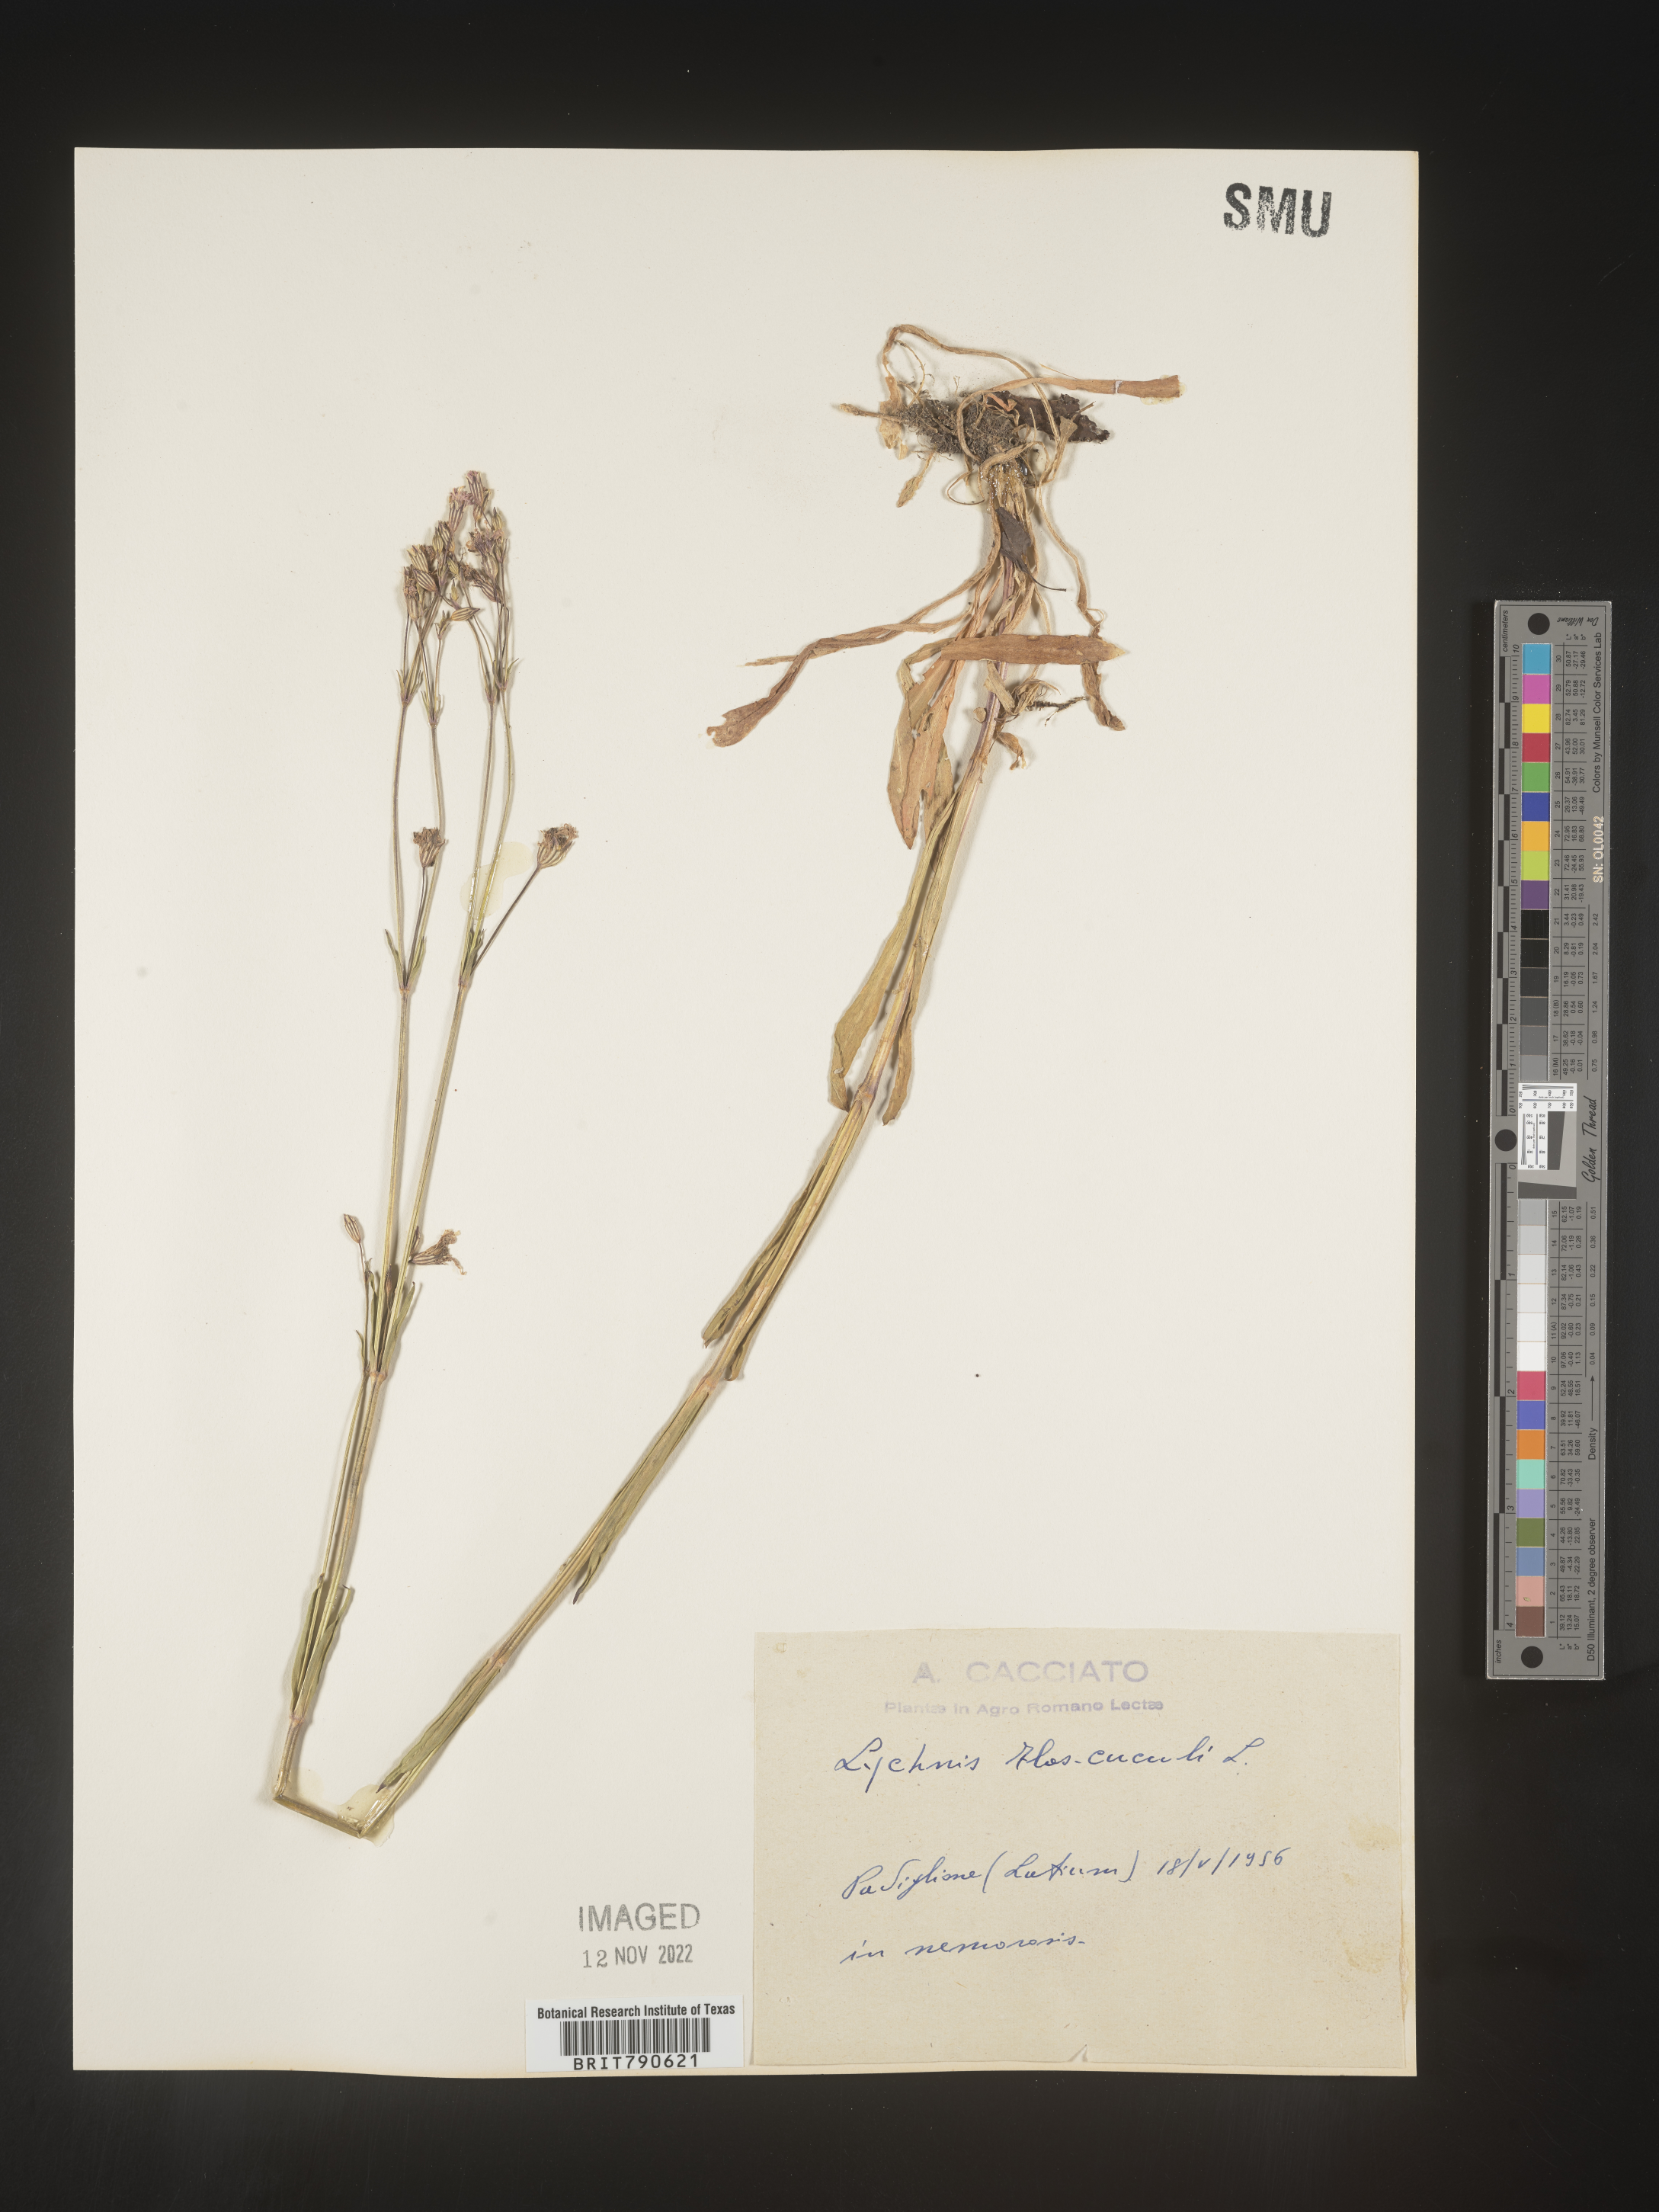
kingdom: Plantae
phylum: Tracheophyta
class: Magnoliopsida
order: Caryophyllales
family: Caryophyllaceae
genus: Silene
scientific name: Silene
